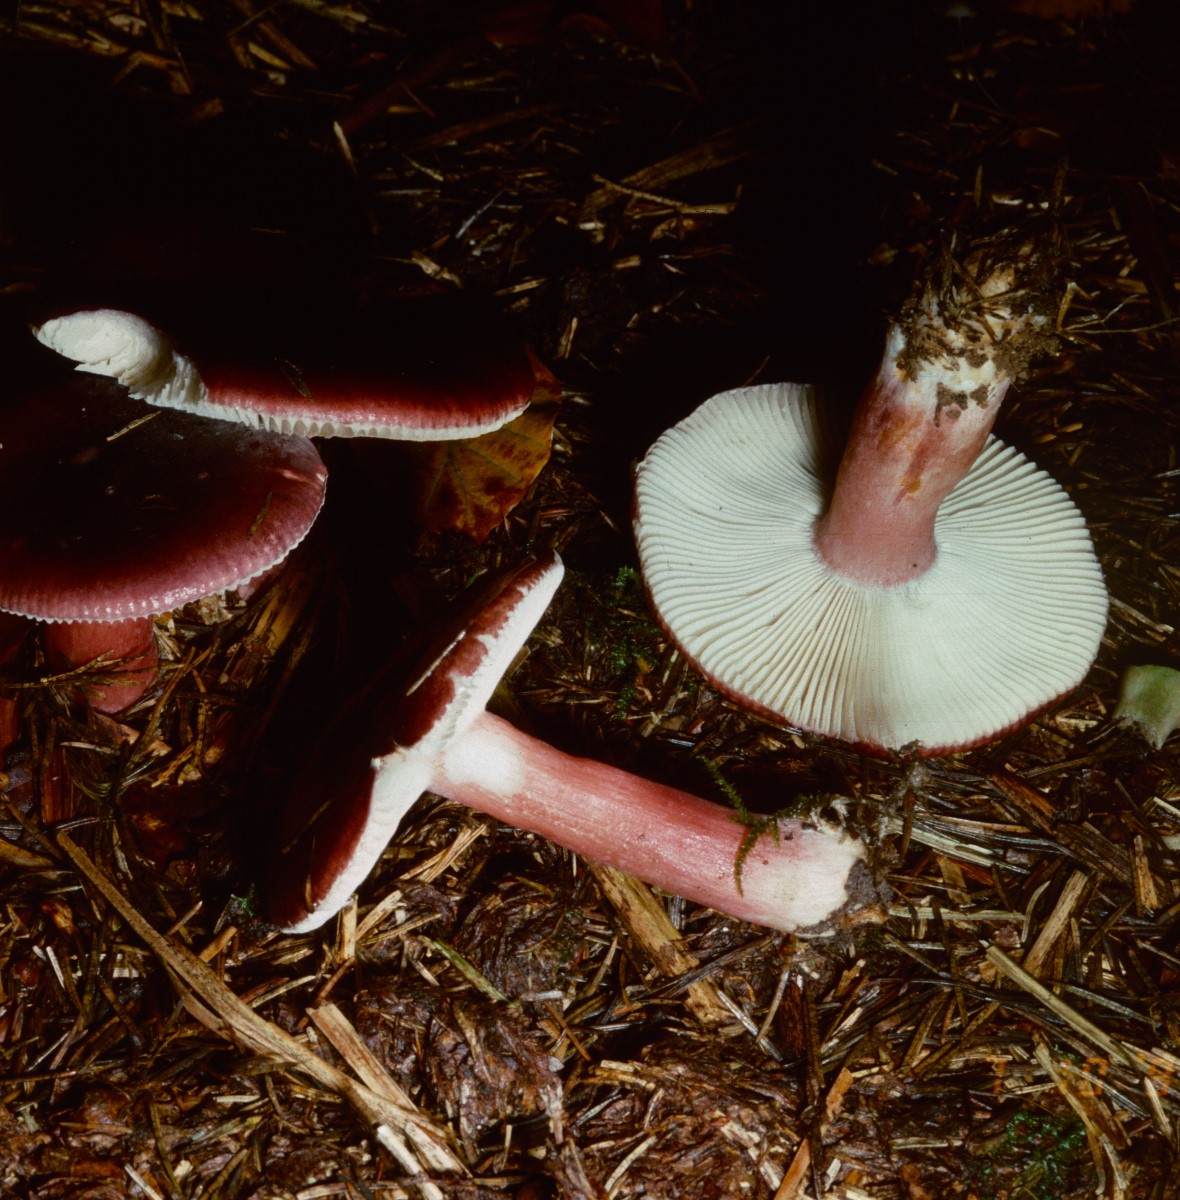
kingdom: Fungi
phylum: Basidiomycota
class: Agaricomycetes
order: Russulales
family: Russulaceae
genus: Russula
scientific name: Russula queletii
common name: Quélets skørhat
